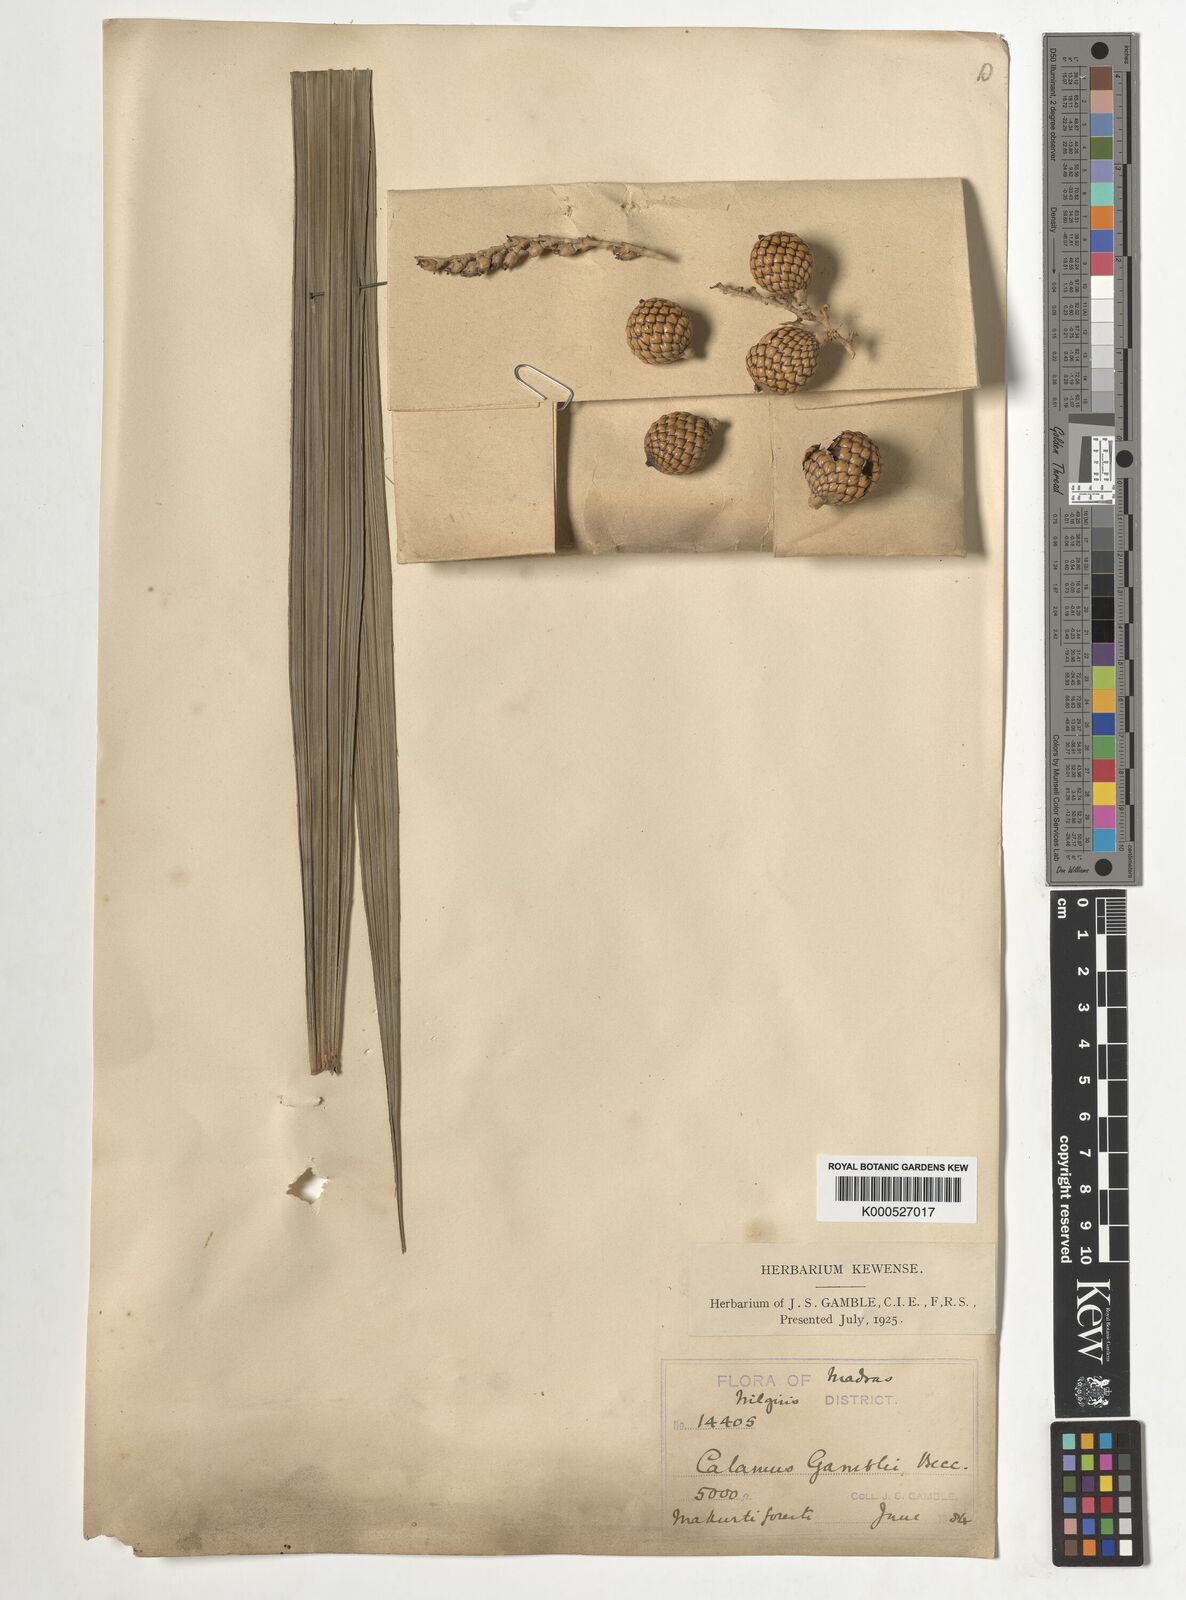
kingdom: Plantae
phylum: Tracheophyta
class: Liliopsida
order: Arecales
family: Arecaceae
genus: Calamus
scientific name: Calamus gamblei
